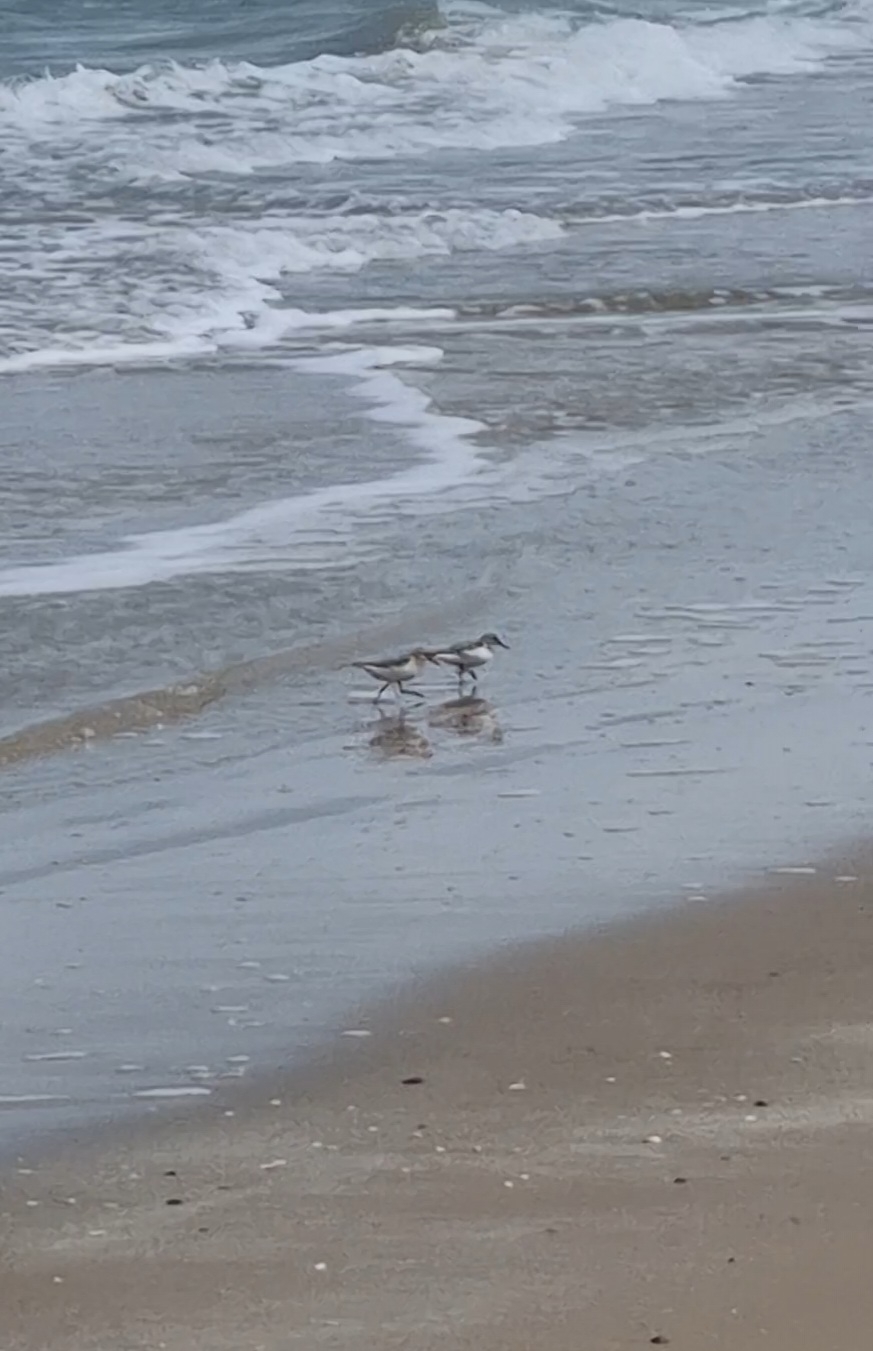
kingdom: Animalia
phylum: Chordata
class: Aves
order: Charadriiformes
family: Scolopacidae
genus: Calidris
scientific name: Calidris alba
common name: Sandløber
